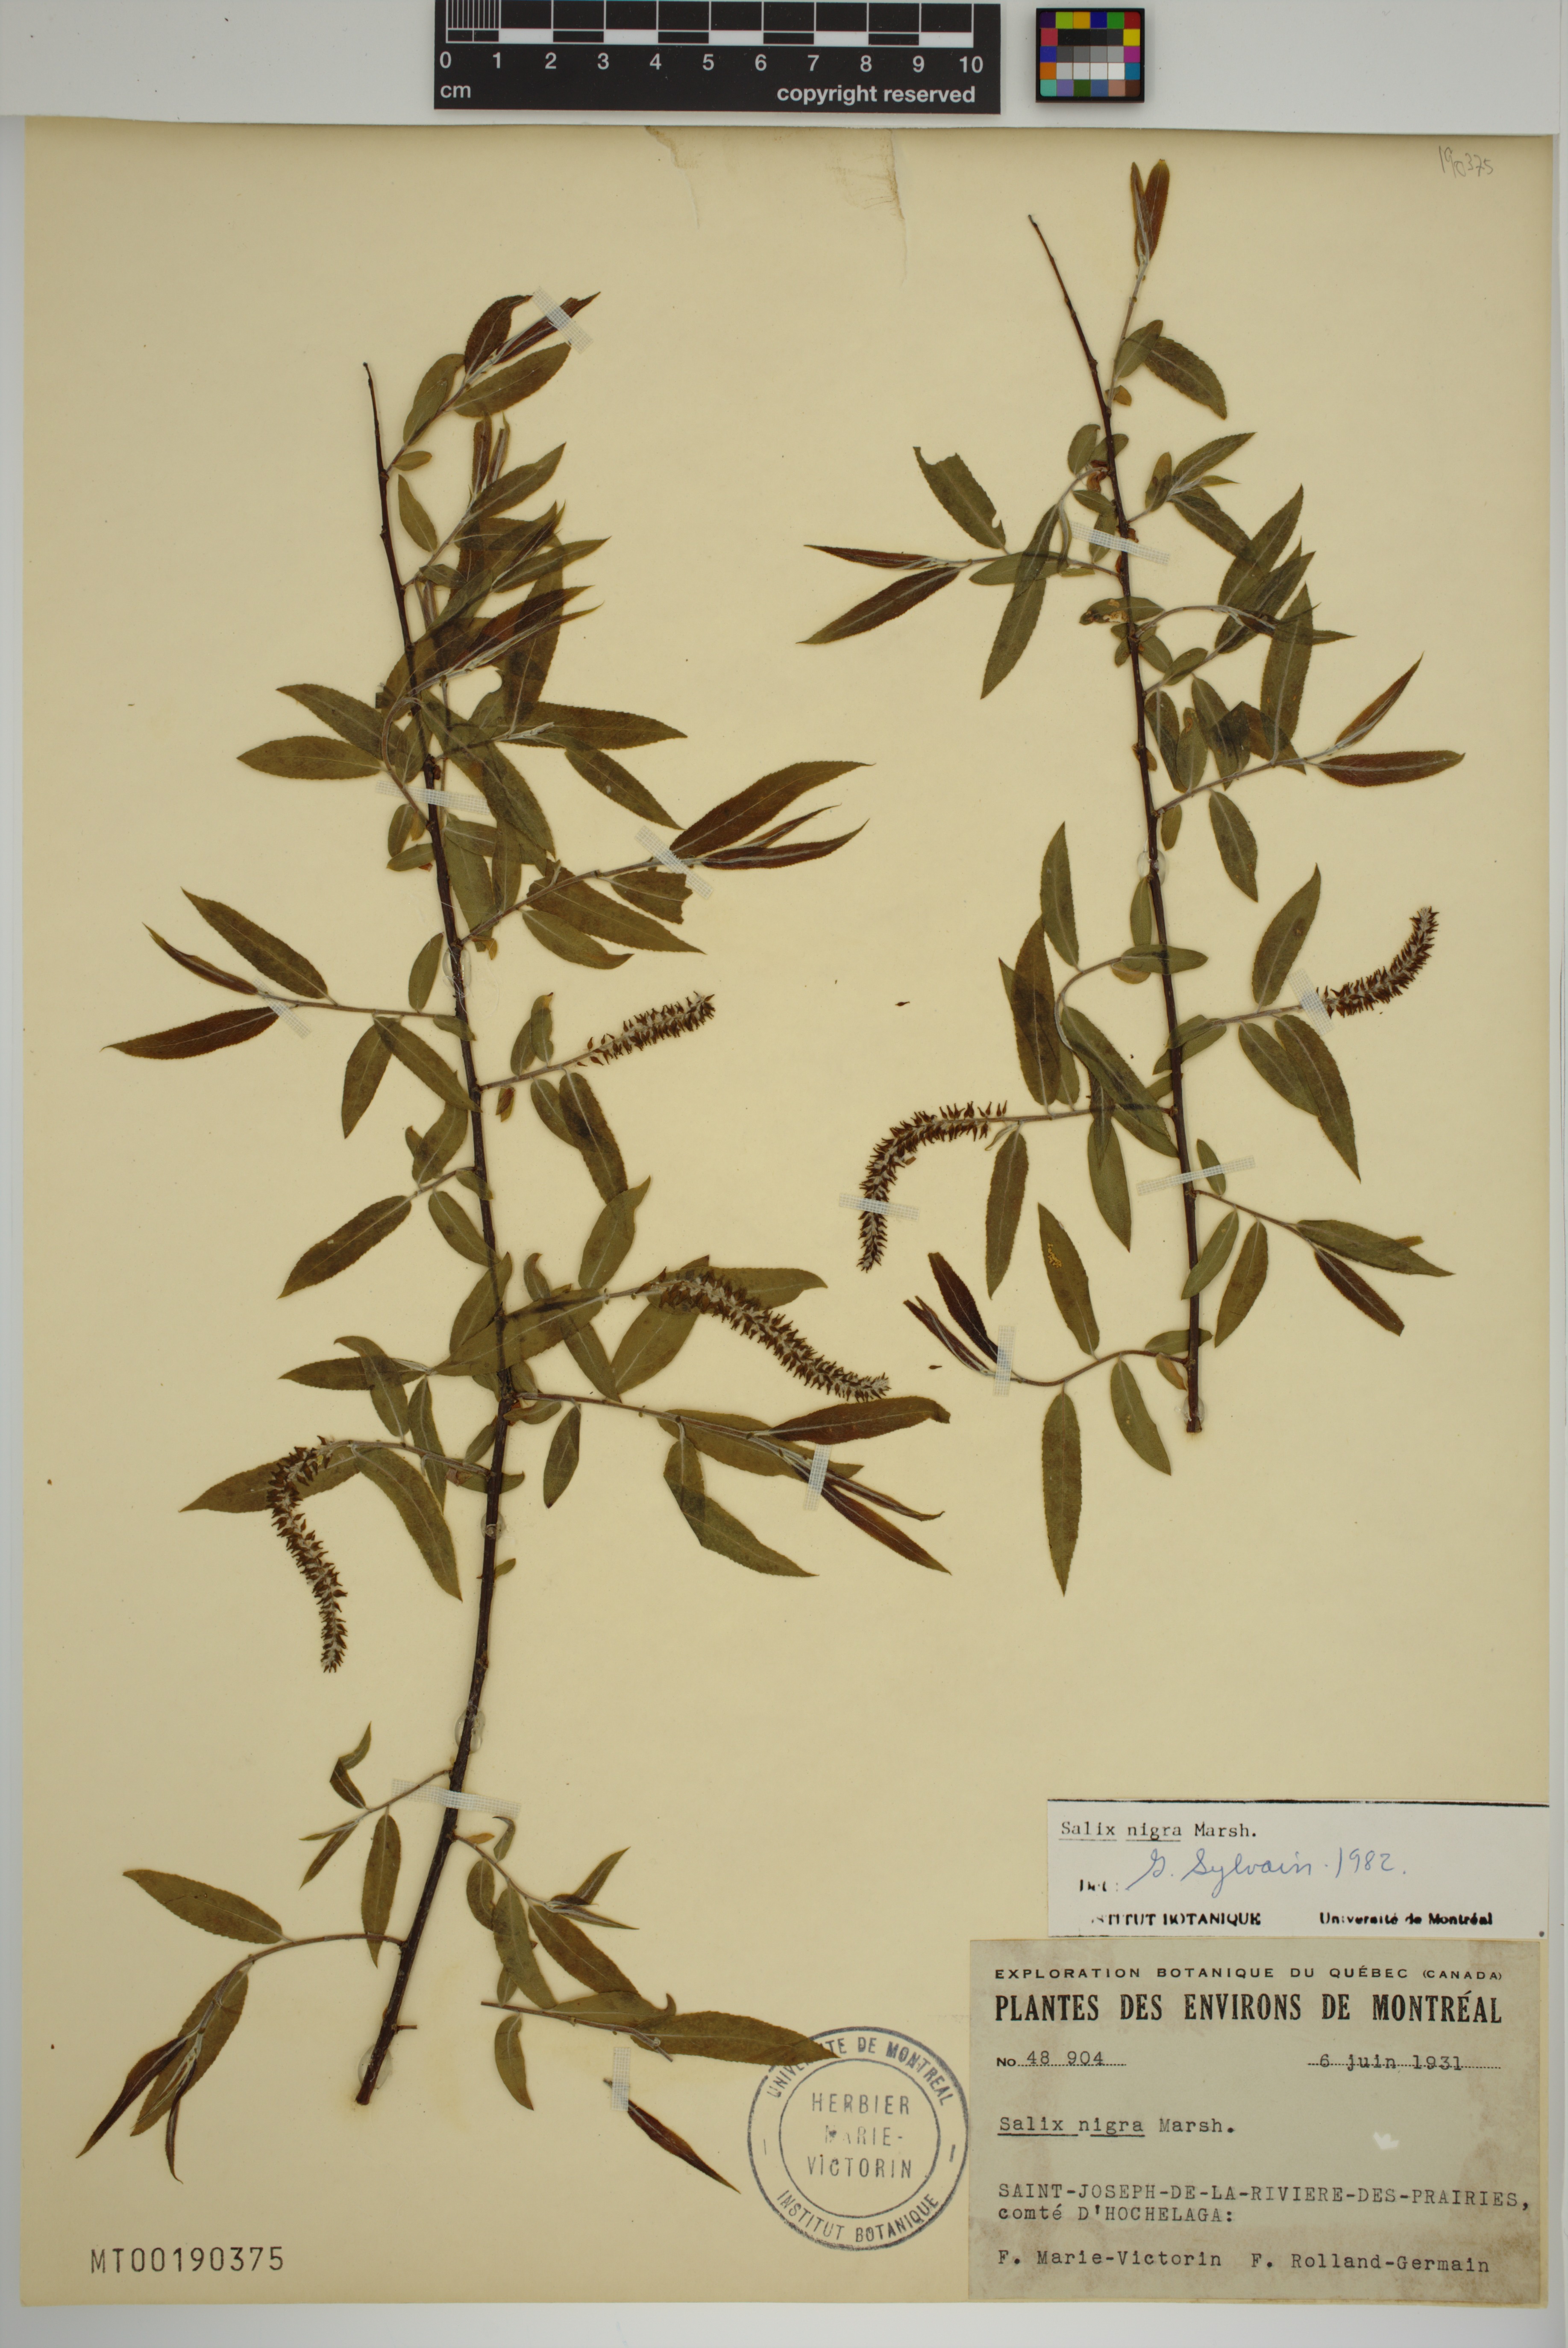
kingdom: Plantae
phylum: Tracheophyta
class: Magnoliopsida
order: Malpighiales
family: Salicaceae
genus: Salix
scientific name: Salix nigra
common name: Black willow
